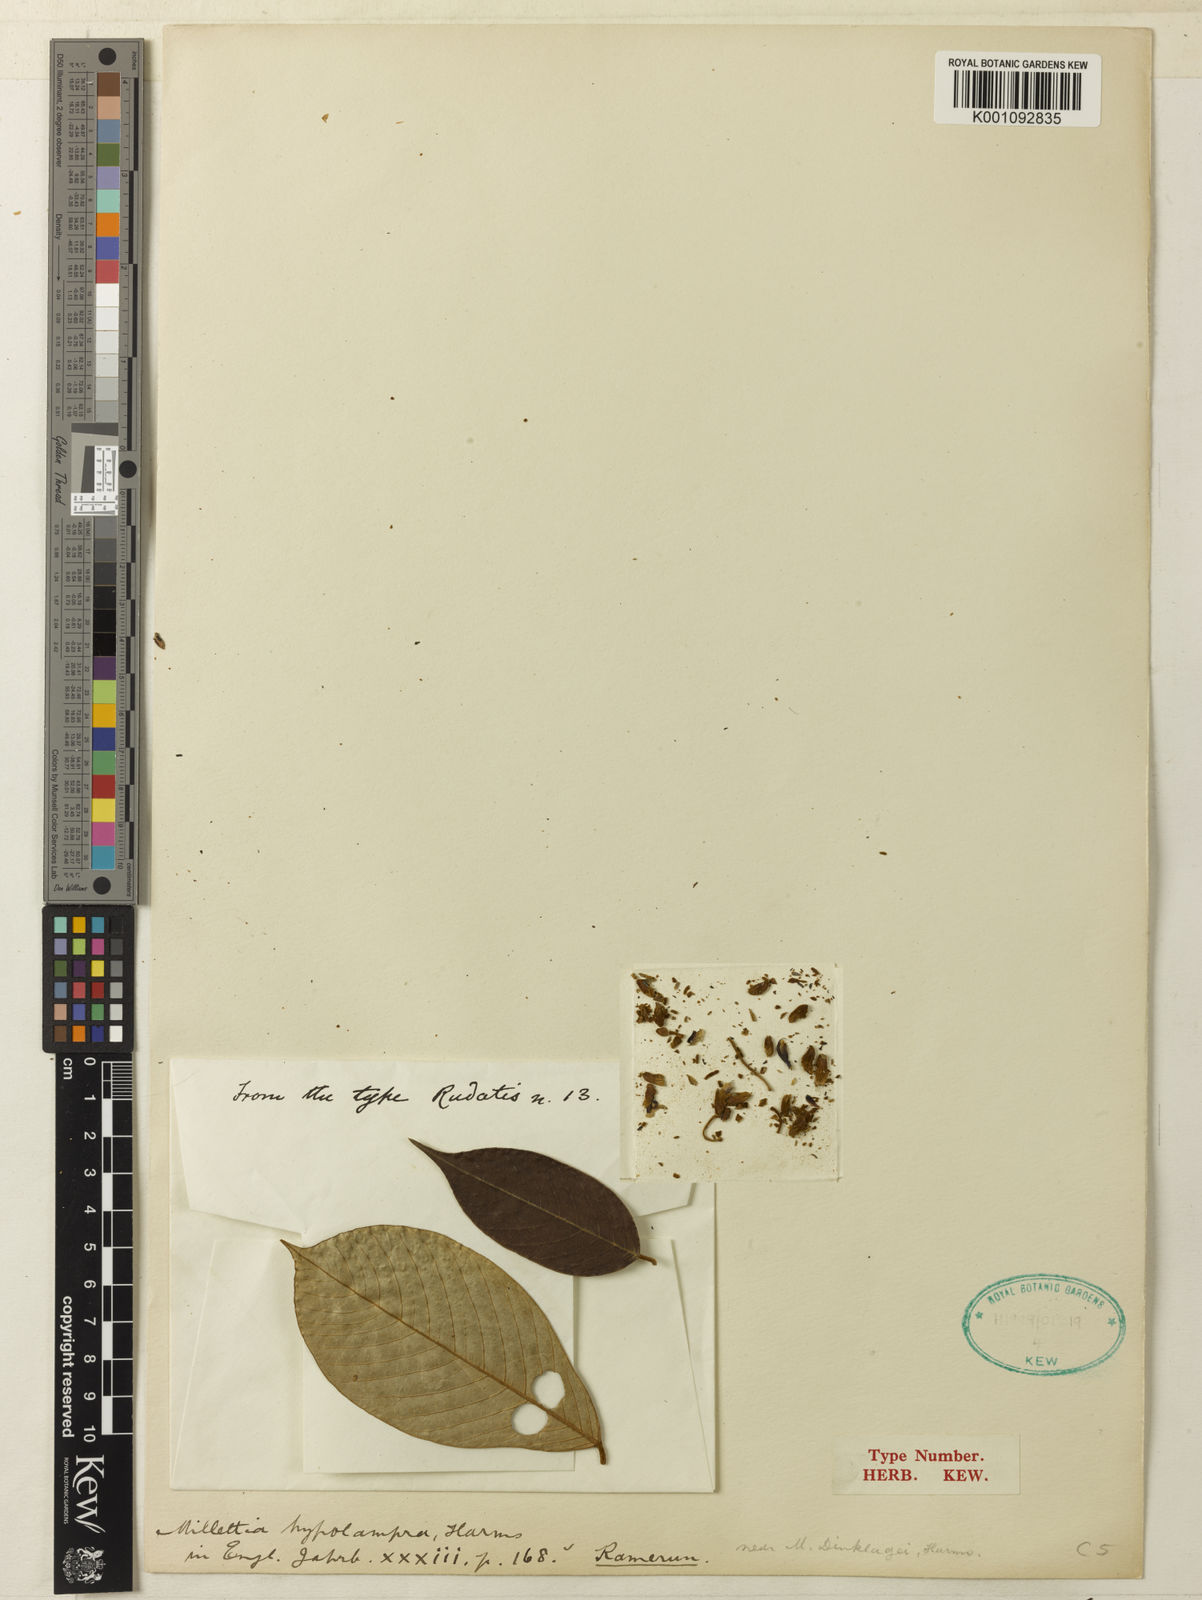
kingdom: Plantae
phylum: Tracheophyta
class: Magnoliopsida
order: Fabales
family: Fabaceae
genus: Millettia
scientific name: Millettia hypolampra
